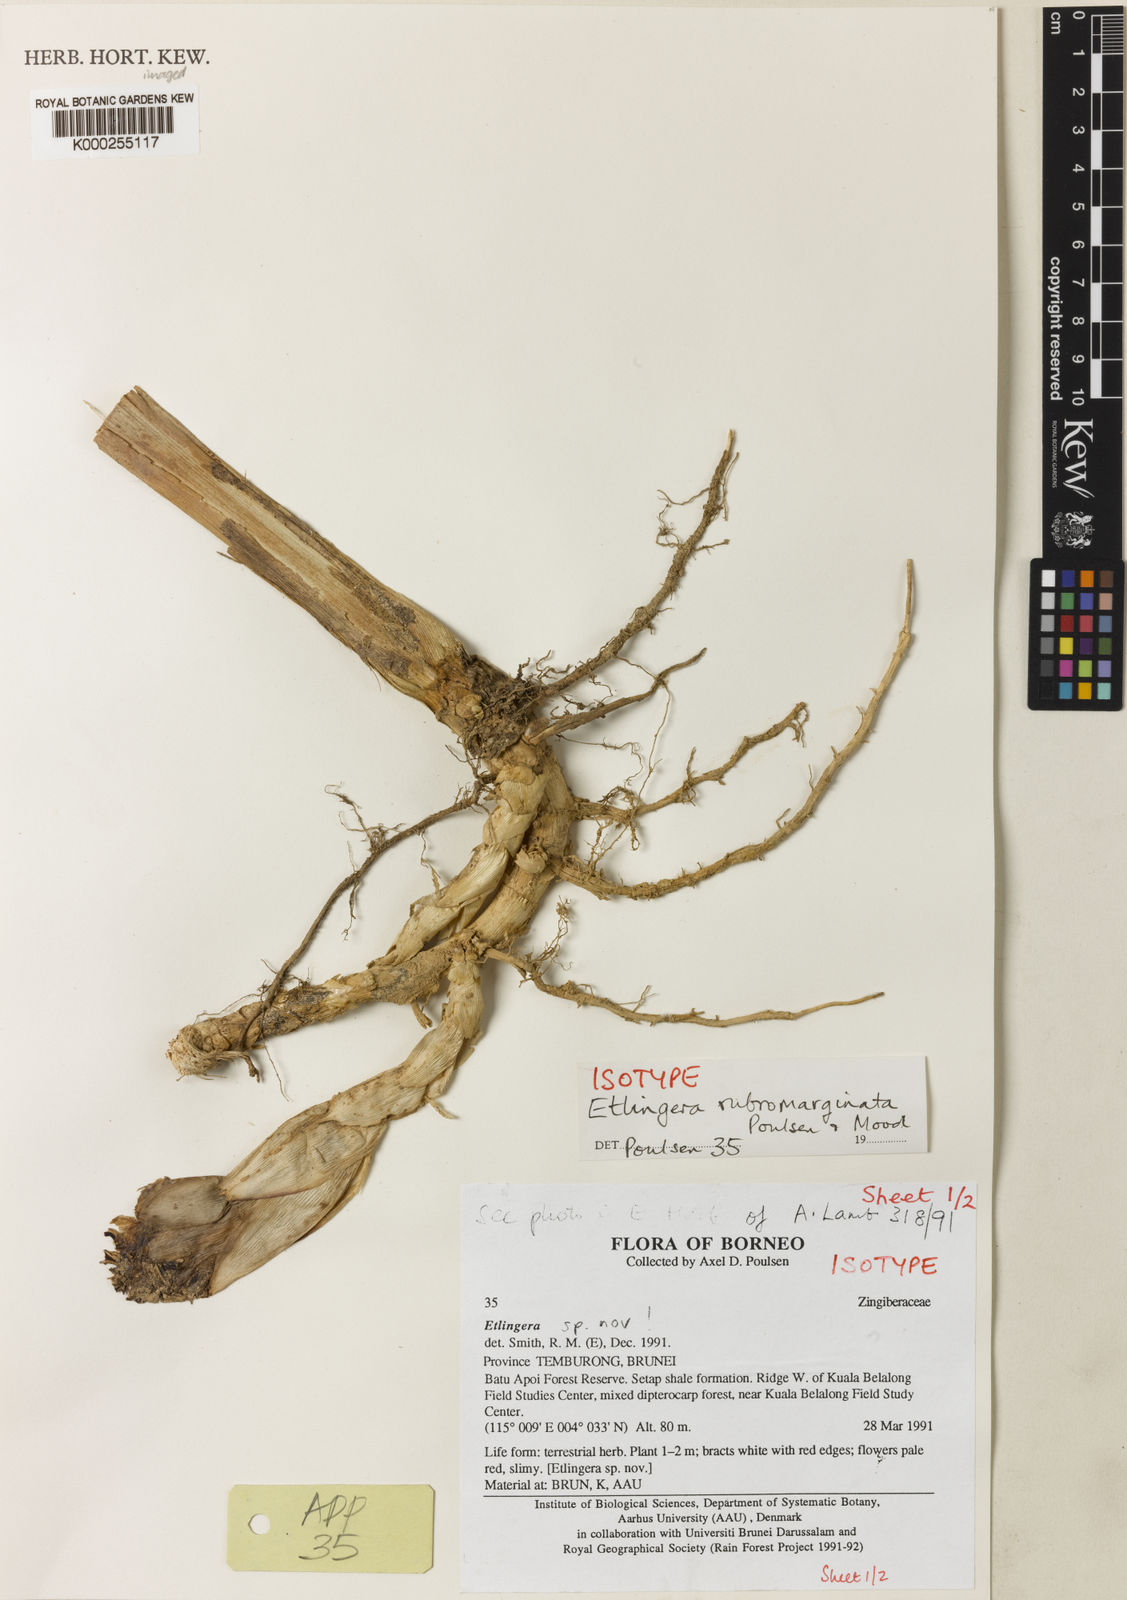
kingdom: Plantae
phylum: Tracheophyta
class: Liliopsida
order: Zingiberales
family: Zingiberaceae
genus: Etlingera
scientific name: Etlingera rubromarginata
